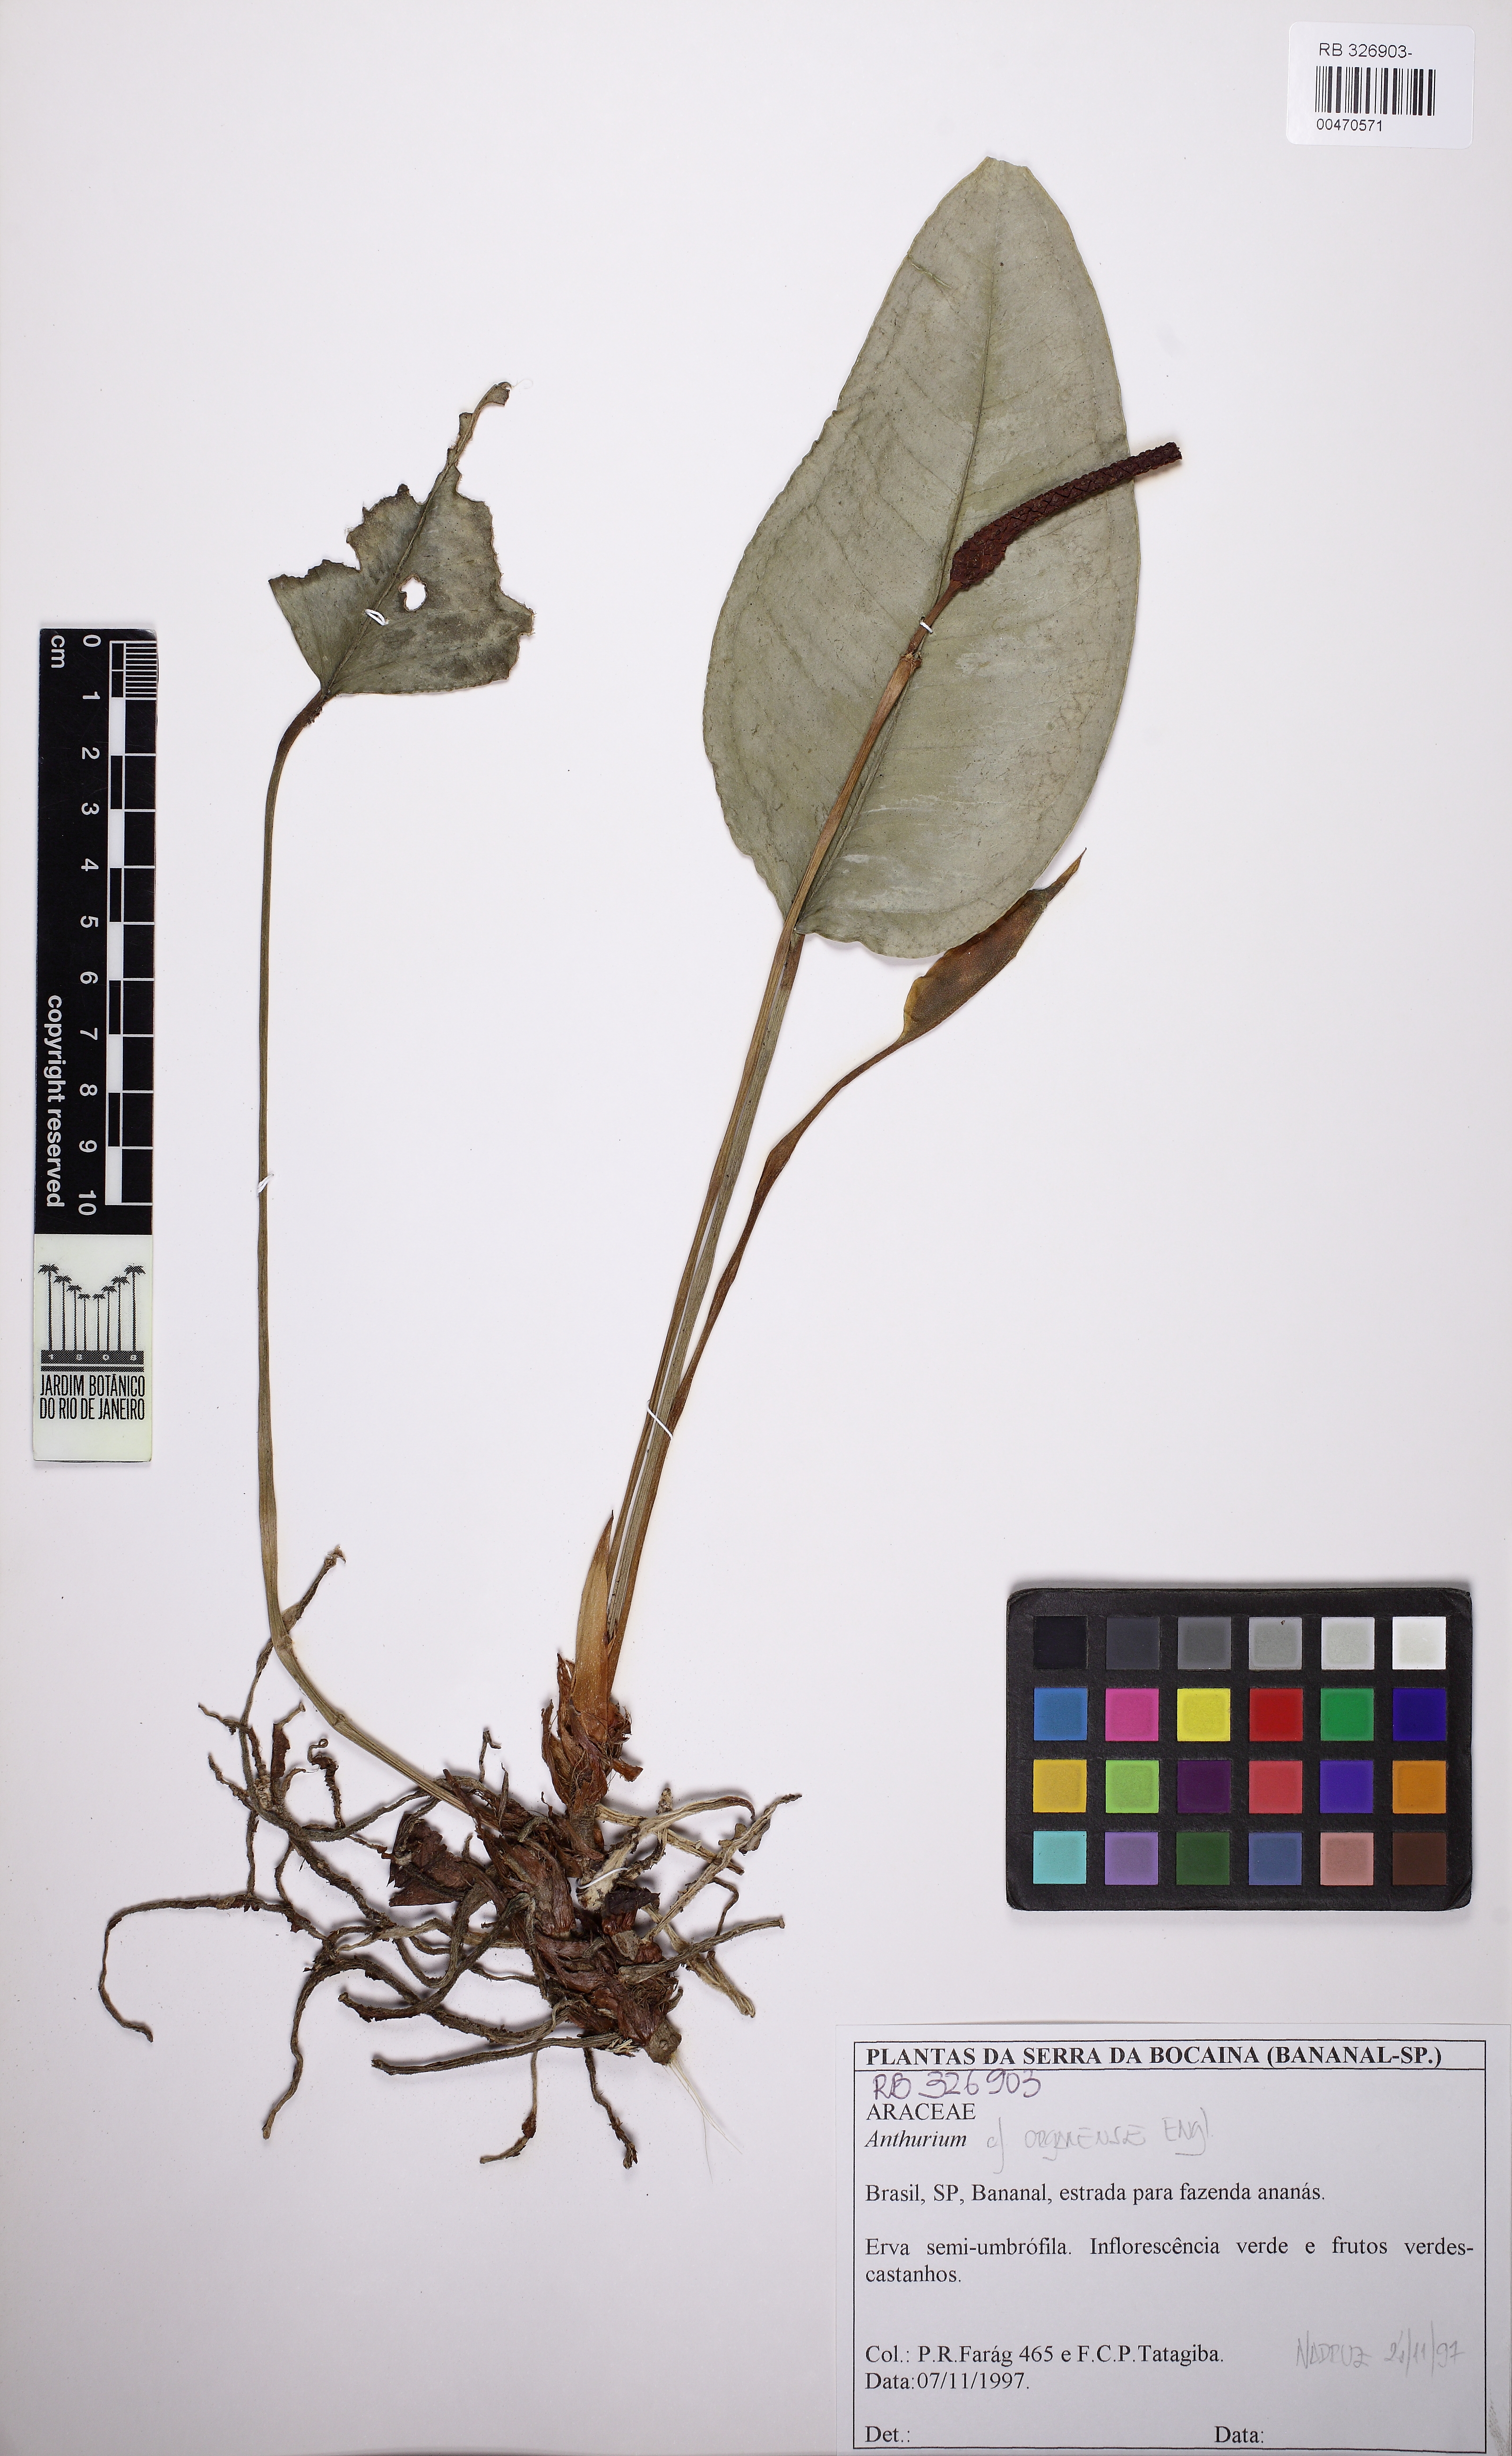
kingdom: Plantae
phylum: Tracheophyta
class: Liliopsida
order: Alismatales
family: Araceae
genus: Anthurium
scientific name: Anthurium organense
